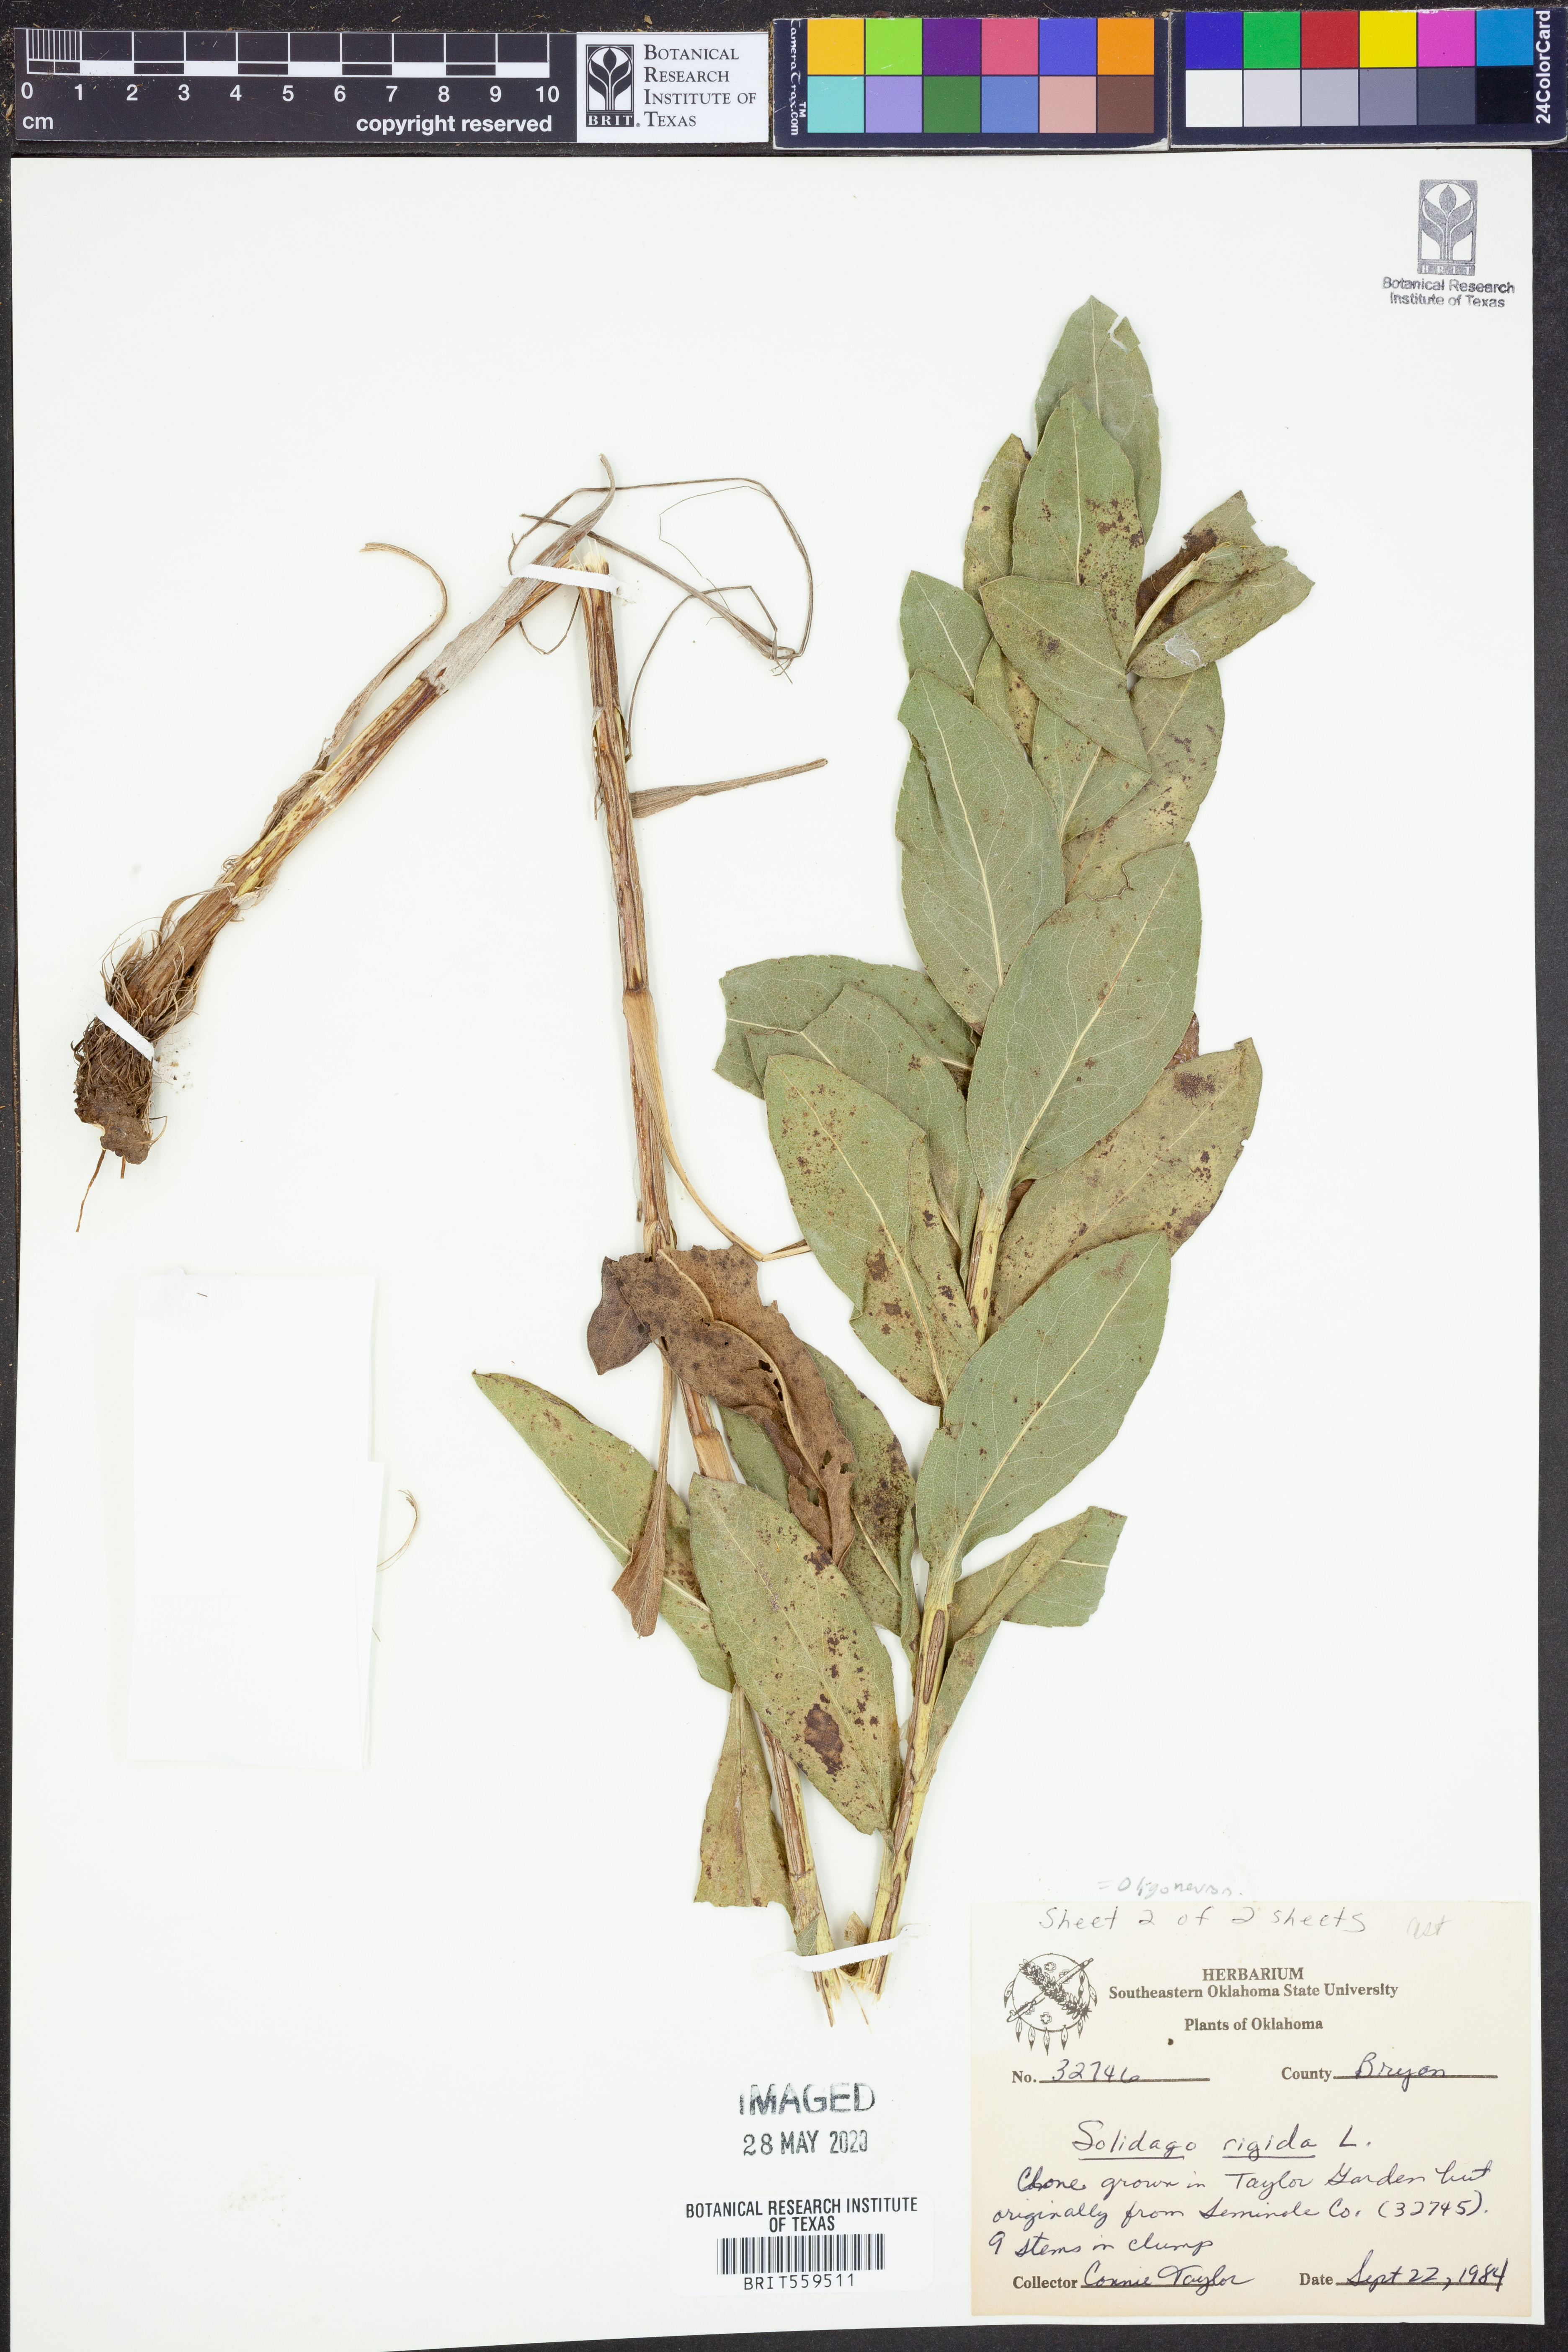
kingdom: Plantae
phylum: Tracheophyta
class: Magnoliopsida
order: Asterales
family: Asteraceae
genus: Solidago
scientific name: Solidago rigida
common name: Rigid goldenrod
